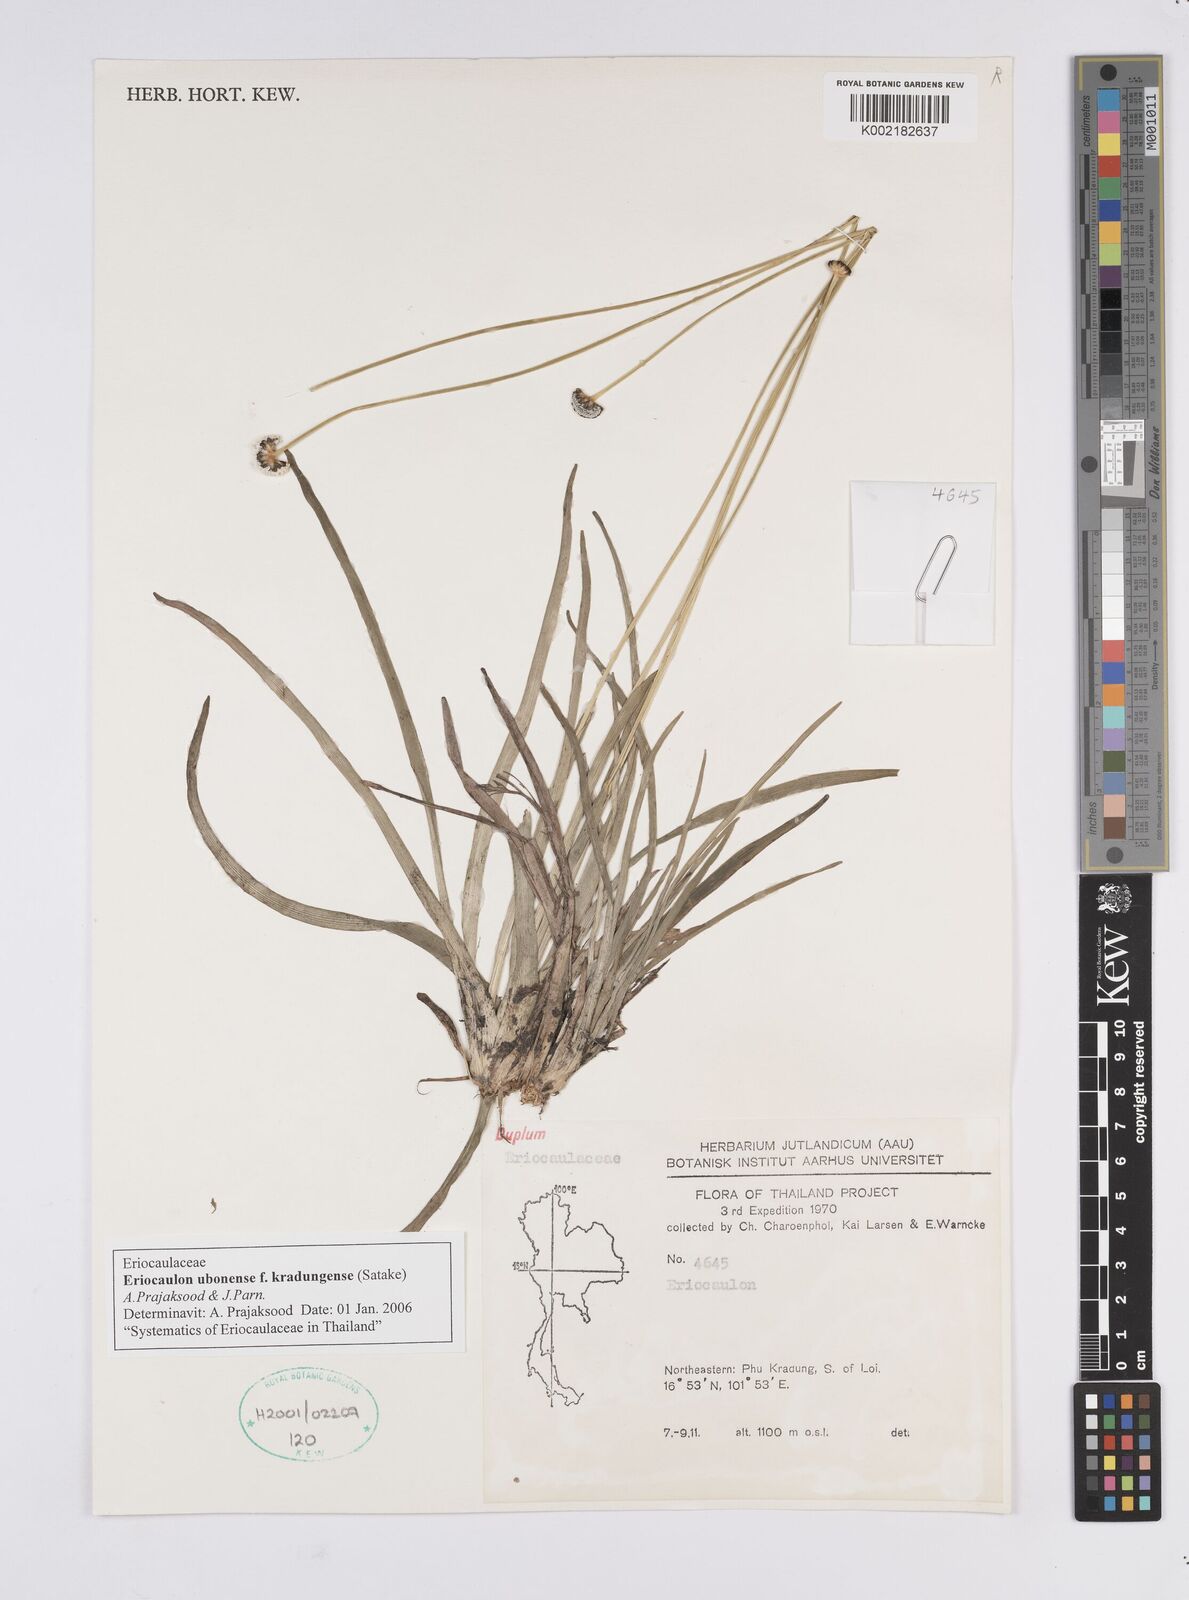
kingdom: Plantae
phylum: Tracheophyta
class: Liliopsida
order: Poales
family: Eriocaulaceae
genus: Eriocaulon
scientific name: Eriocaulon ubonense
